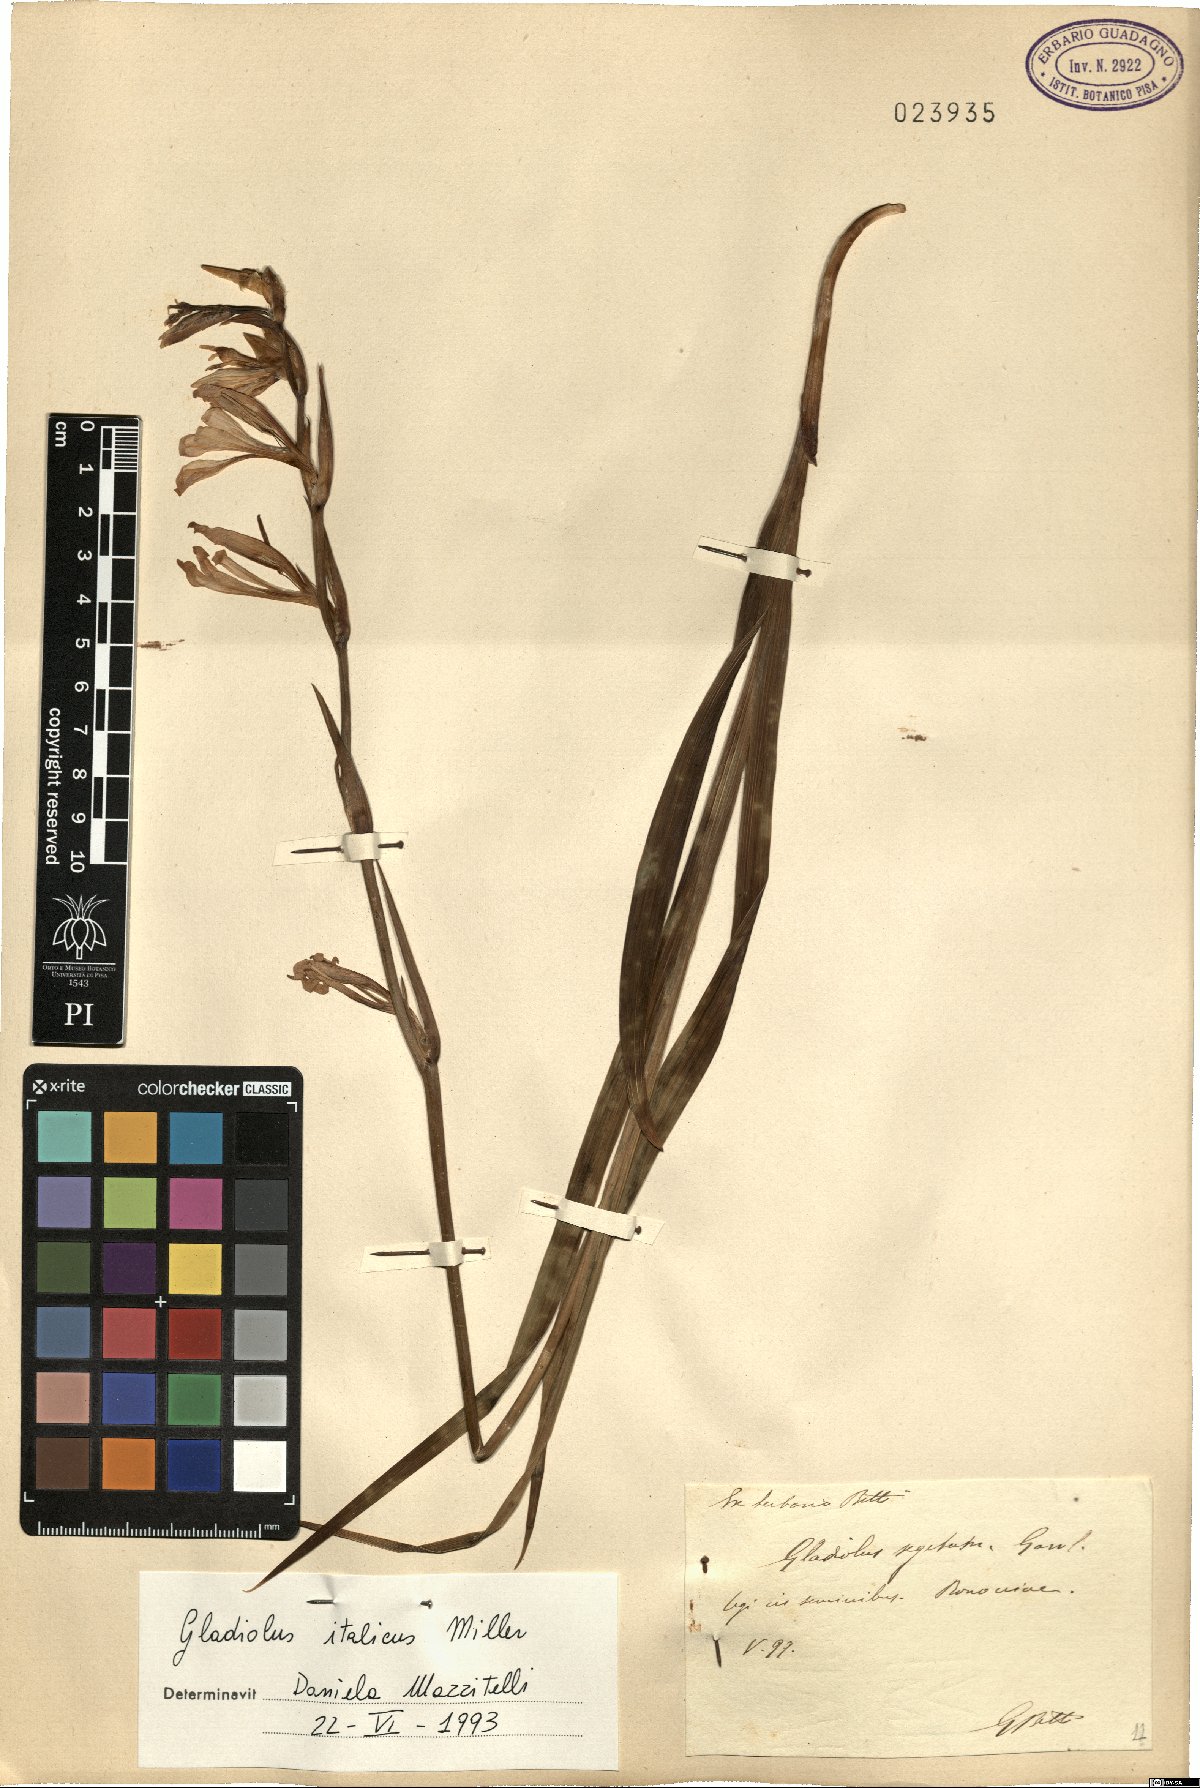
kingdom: Plantae
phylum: Tracheophyta
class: Liliopsida
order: Asparagales
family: Iridaceae
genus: Gladiolus
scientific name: Gladiolus italicus
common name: Field gladiolus
